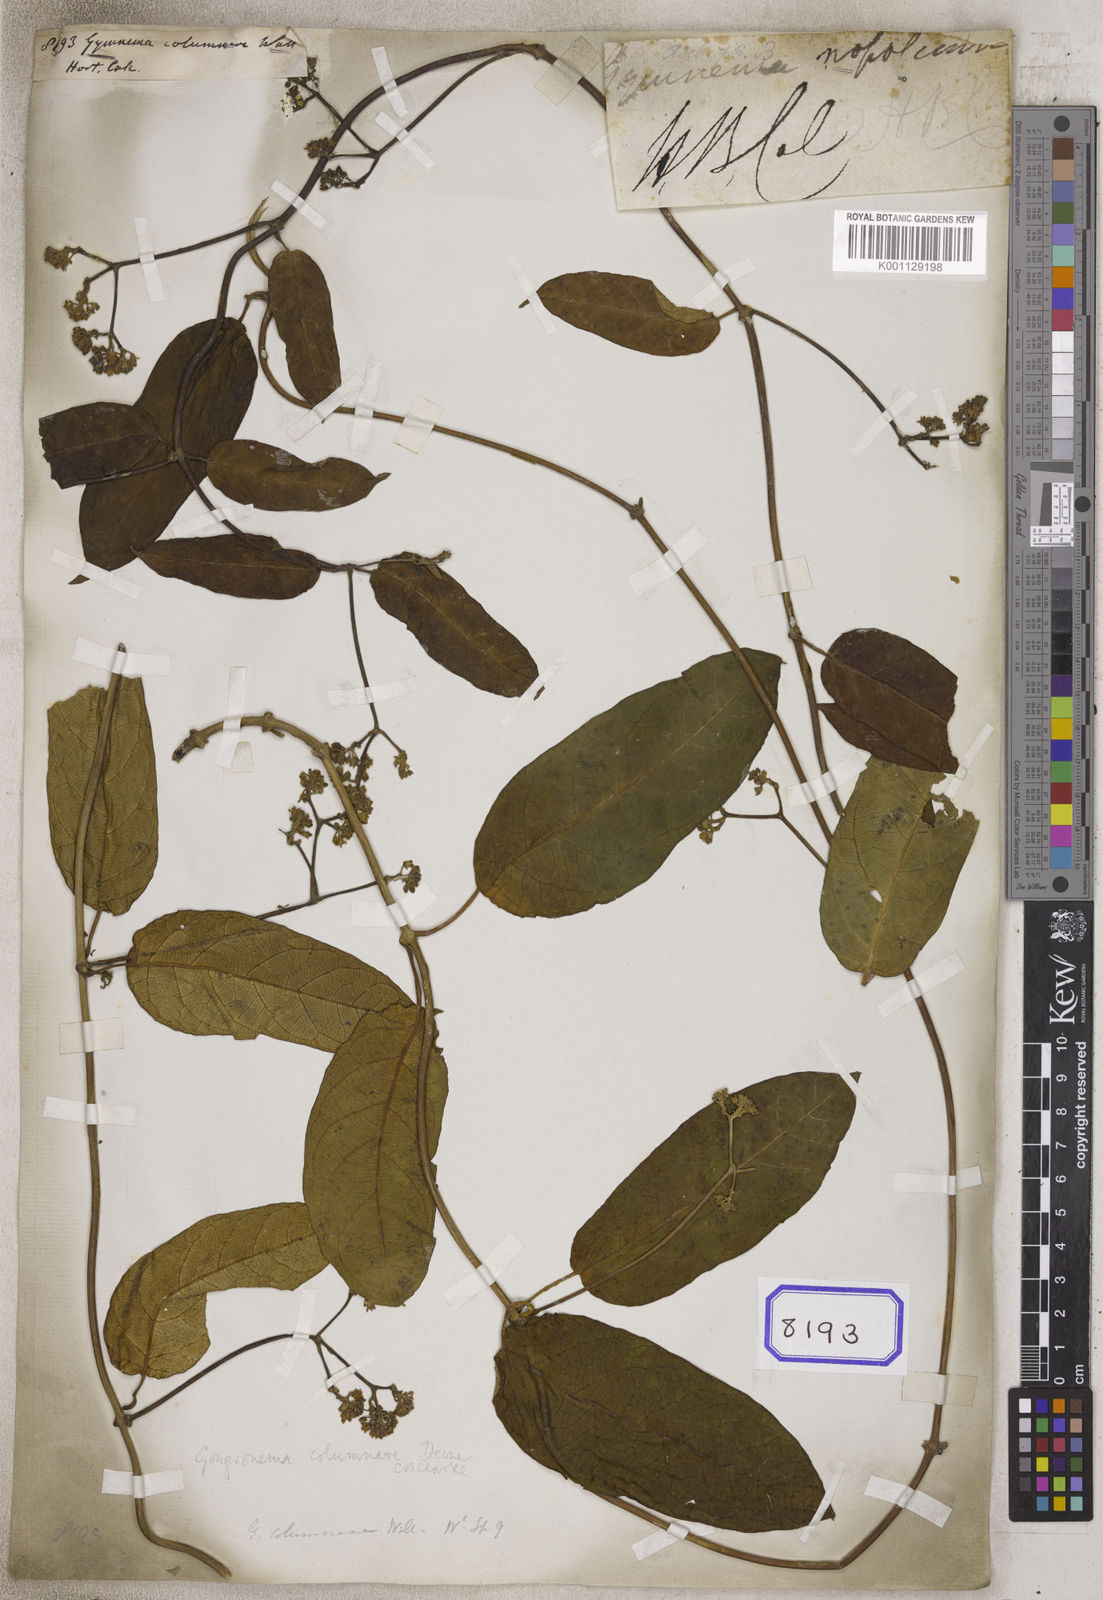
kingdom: Plantae
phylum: Tracheophyta
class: Magnoliopsida
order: Gentianales
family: Apocynaceae
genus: Gongronema
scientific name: Gongronema napalense
